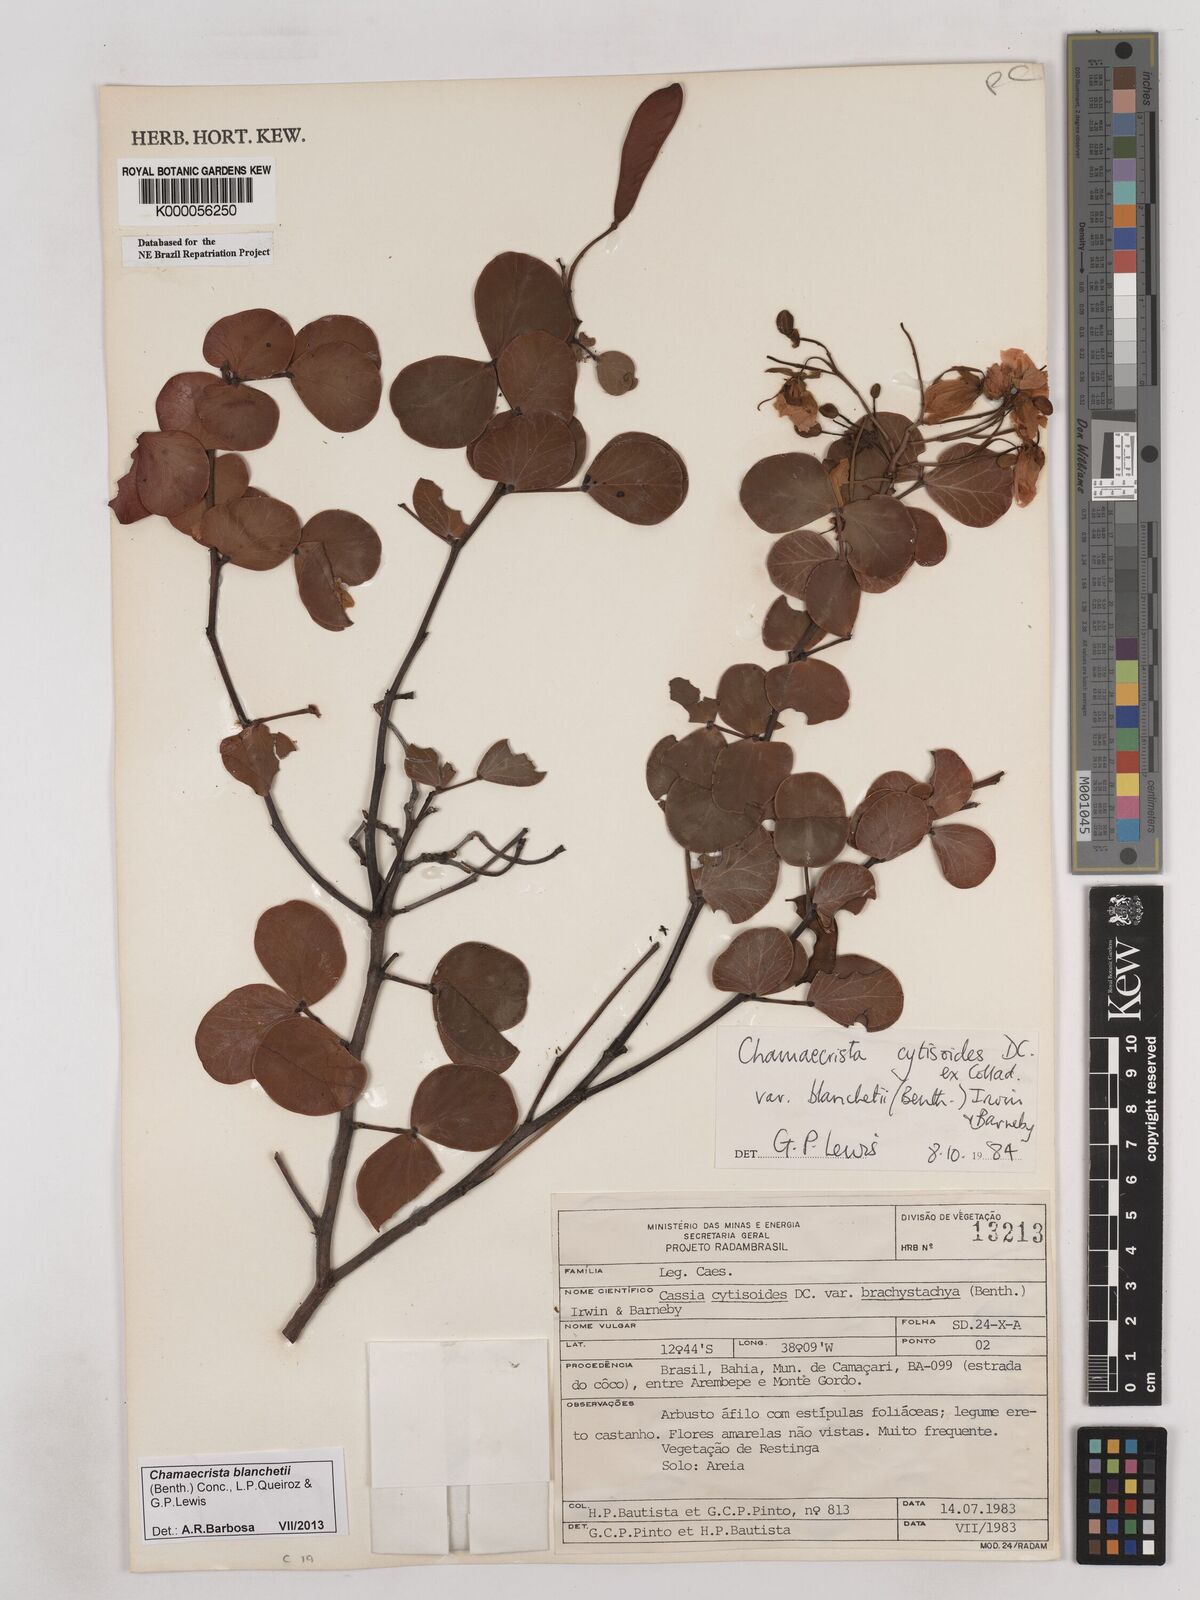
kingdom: Plantae
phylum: Tracheophyta
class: Magnoliopsida
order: Fabales
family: Fabaceae
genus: Chamaecrista
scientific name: Chamaecrista cytisoides
